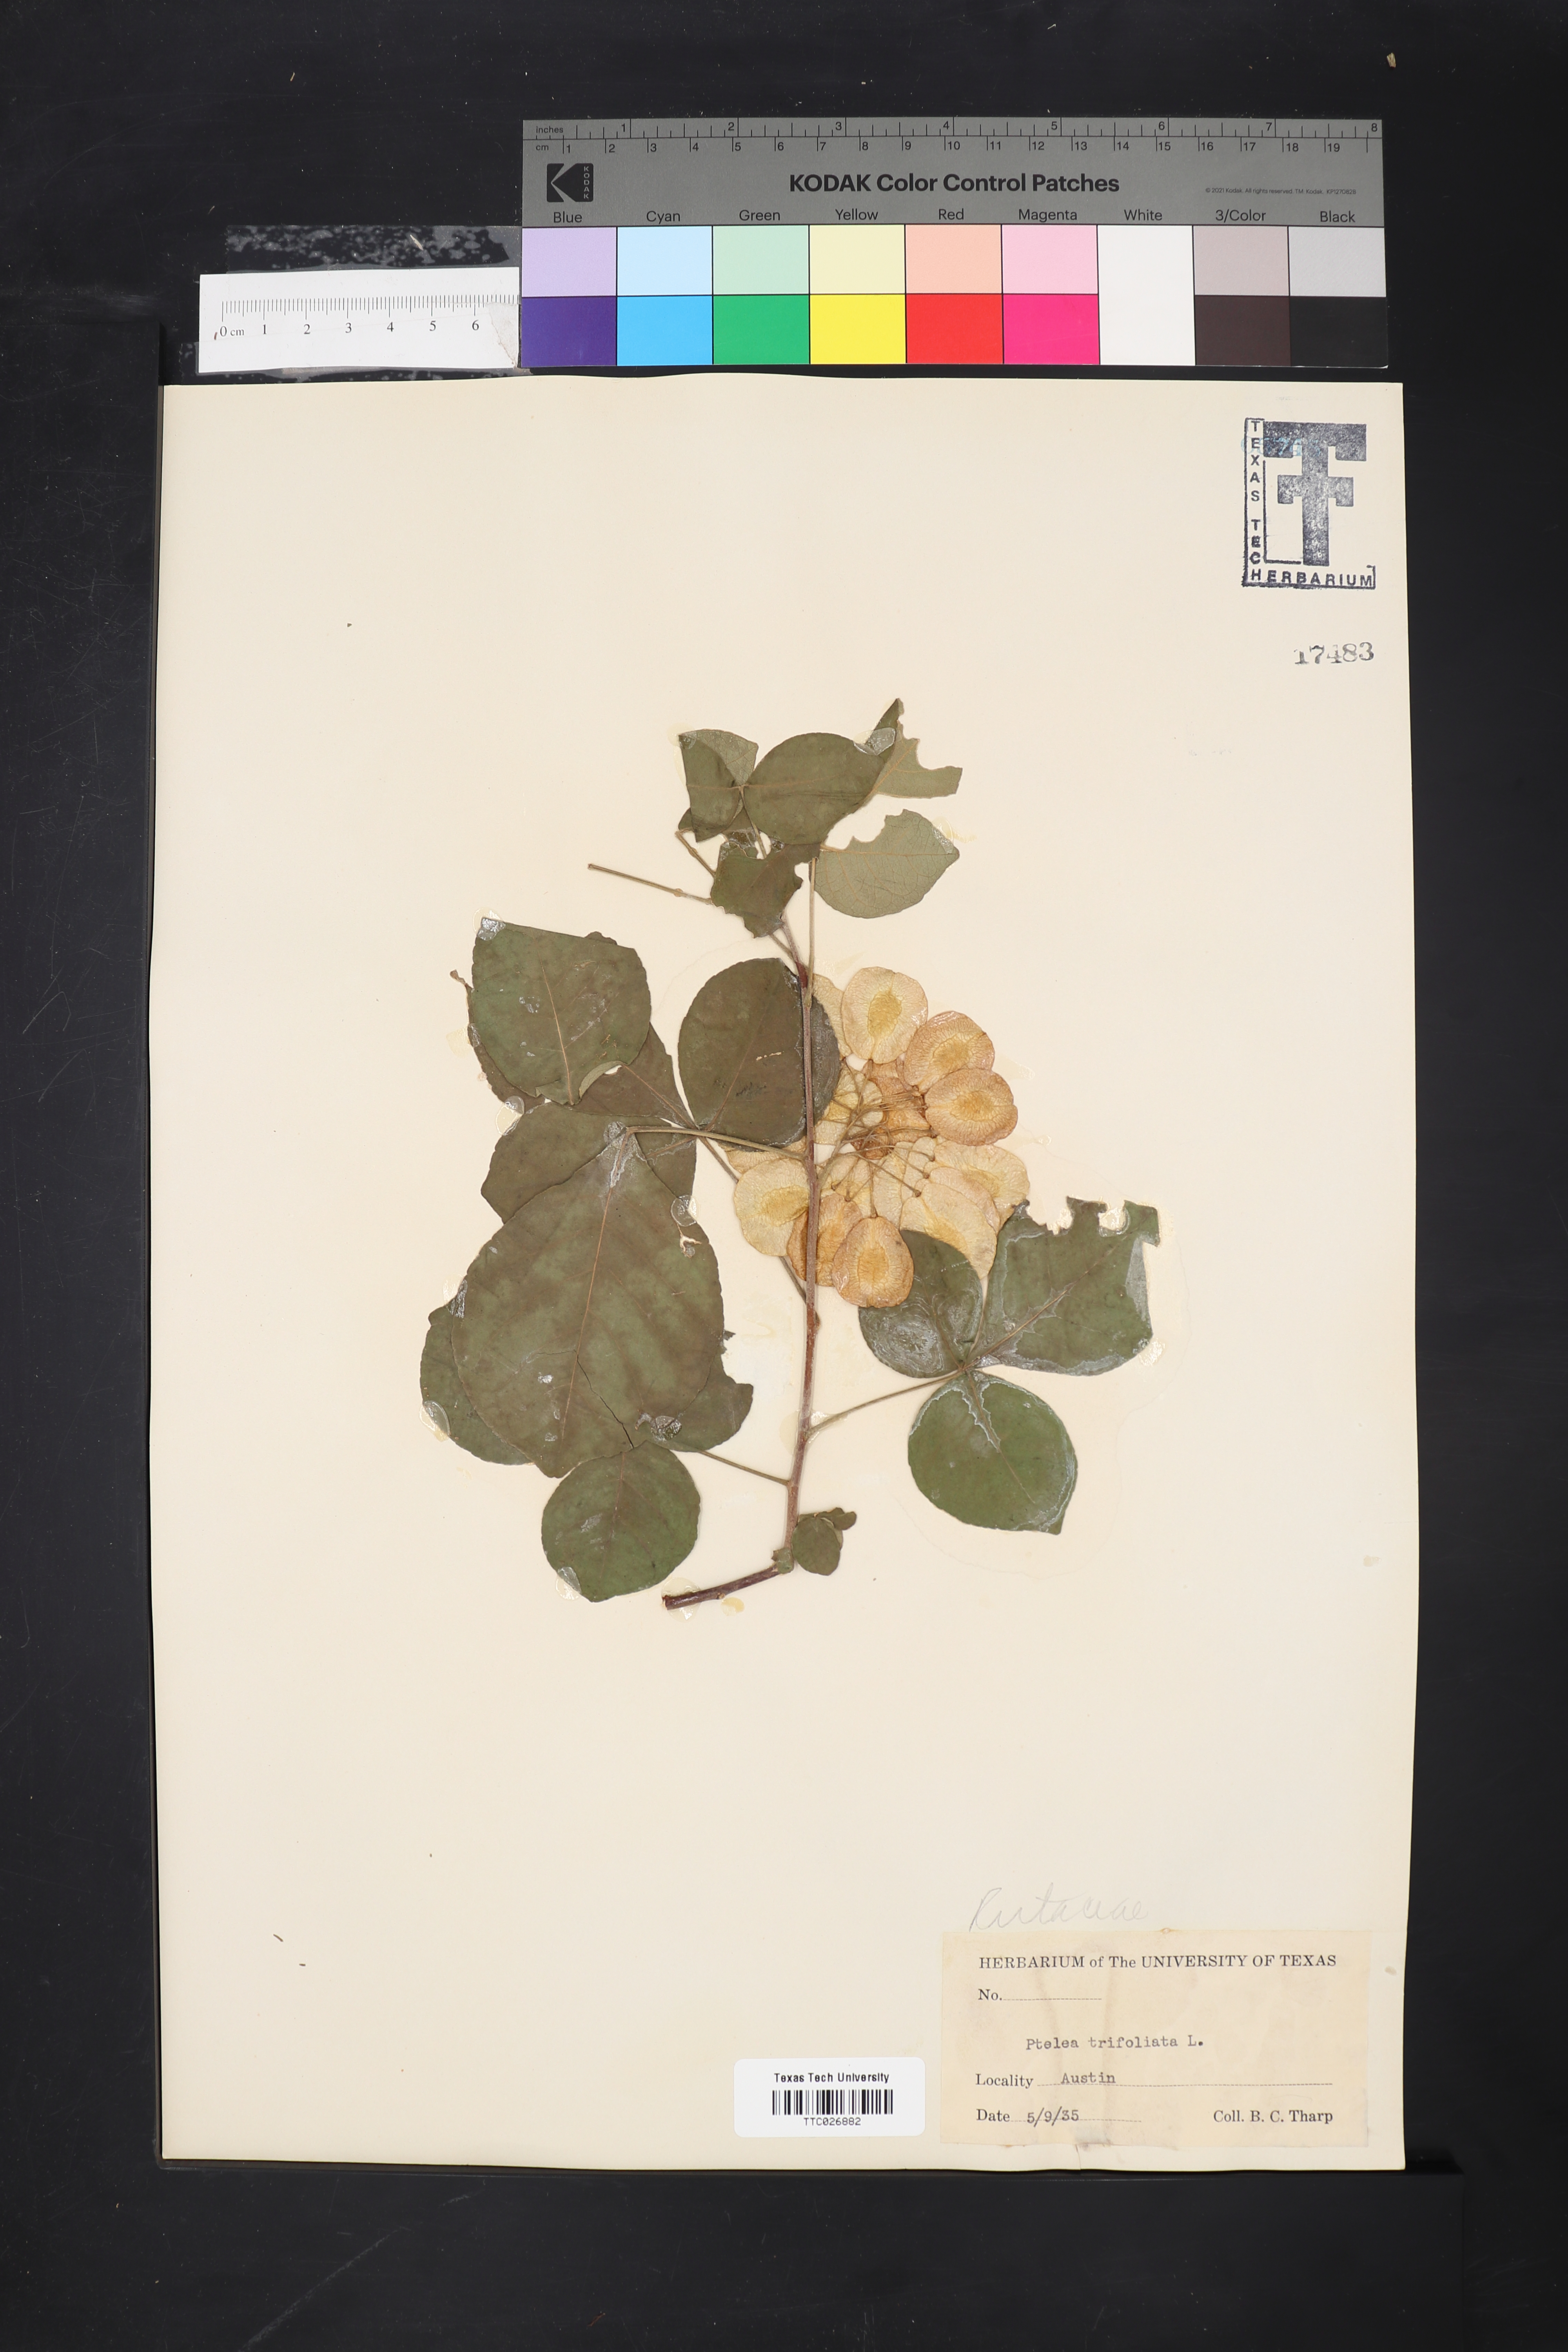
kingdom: Plantae
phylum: Tracheophyta
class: Magnoliopsida
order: Sapindales
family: Rutaceae
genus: Ptelea
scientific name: Ptelea trifoliata
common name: Common hop-tree
